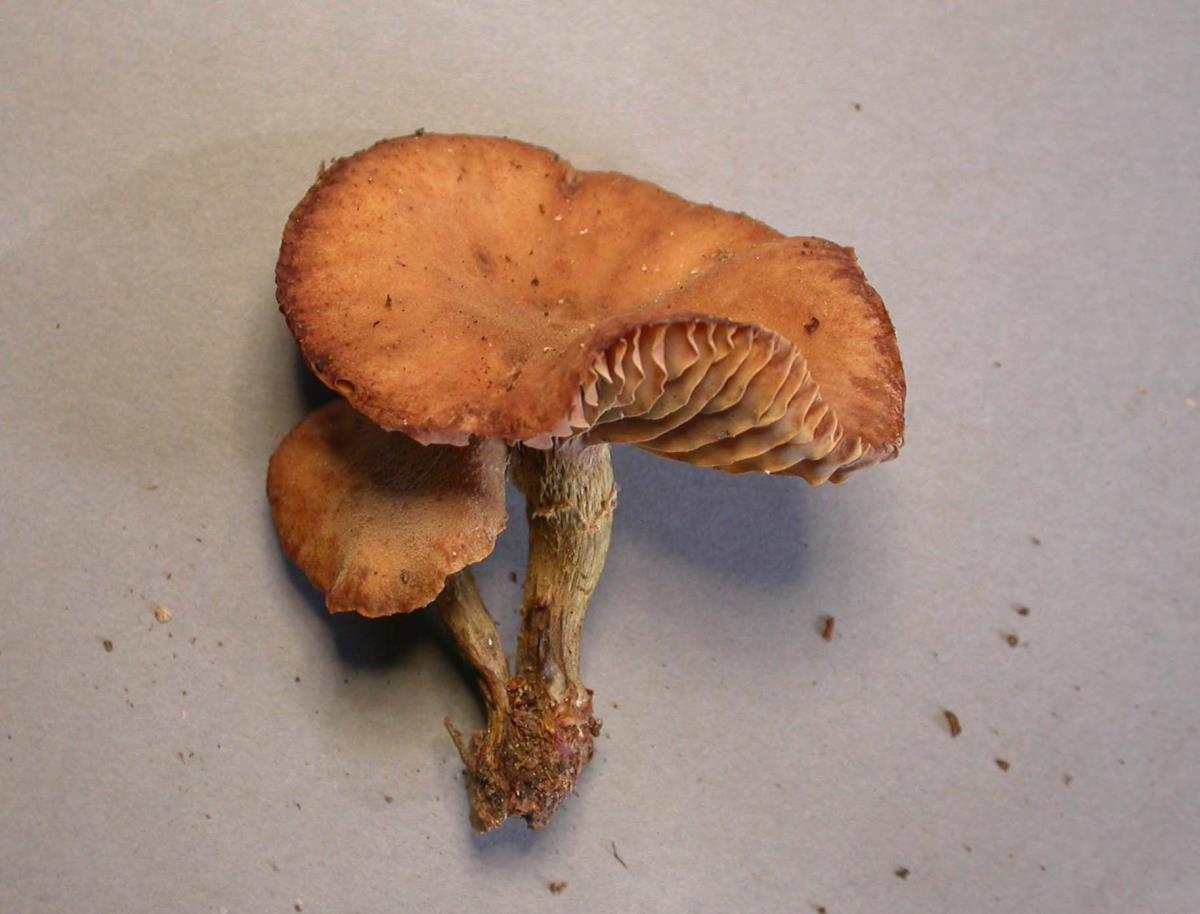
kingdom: Fungi
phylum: Basidiomycota
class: Agaricomycetes
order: Agaricales
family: Physalacriaceae
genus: Armillaria
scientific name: Armillaria aotearoa
